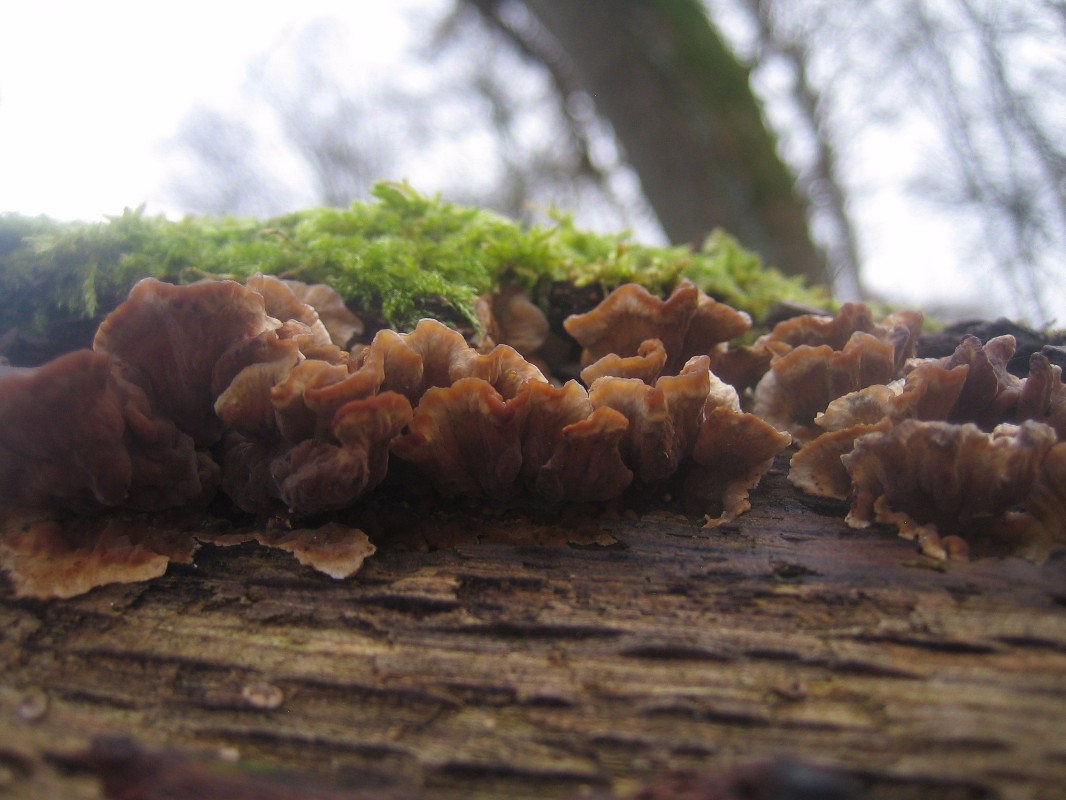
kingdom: Fungi
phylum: Basidiomycota
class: Agaricomycetes
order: Russulales
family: Stereaceae
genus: Stereum
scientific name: Stereum hirsutum
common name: håret lædersvamp
